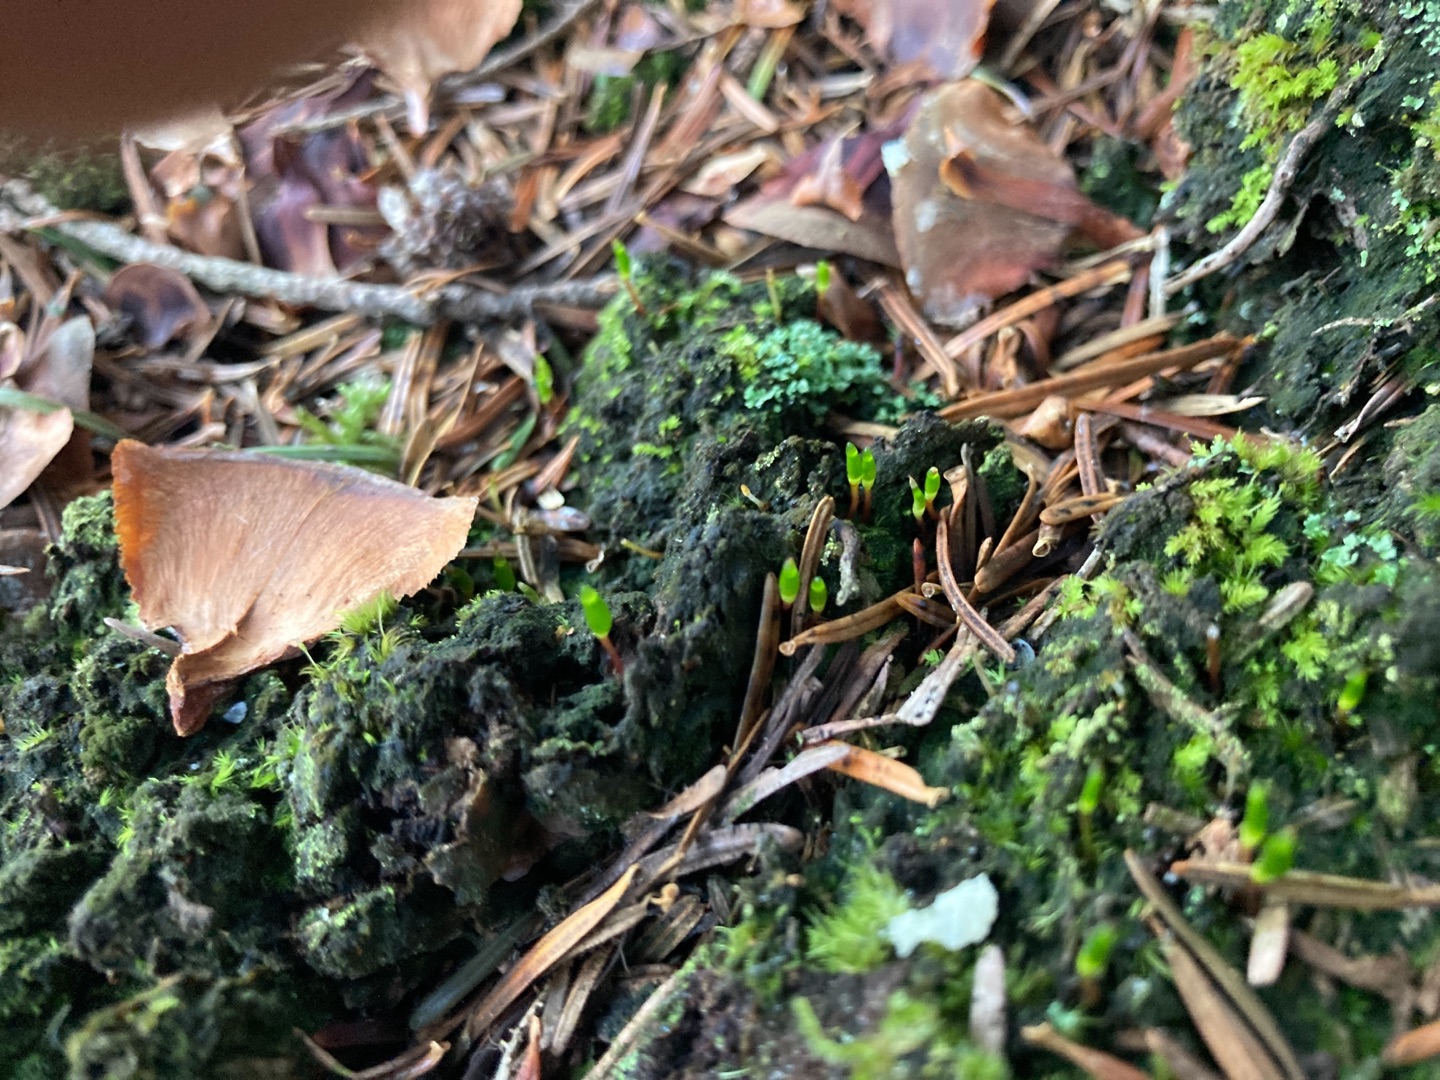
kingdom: Plantae
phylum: Bryophyta
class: Bryopsida
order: Buxbaumiales
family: Buxbaumiaceae
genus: Buxbaumia
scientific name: Buxbaumia viridis
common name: Grøn buxbaumia
